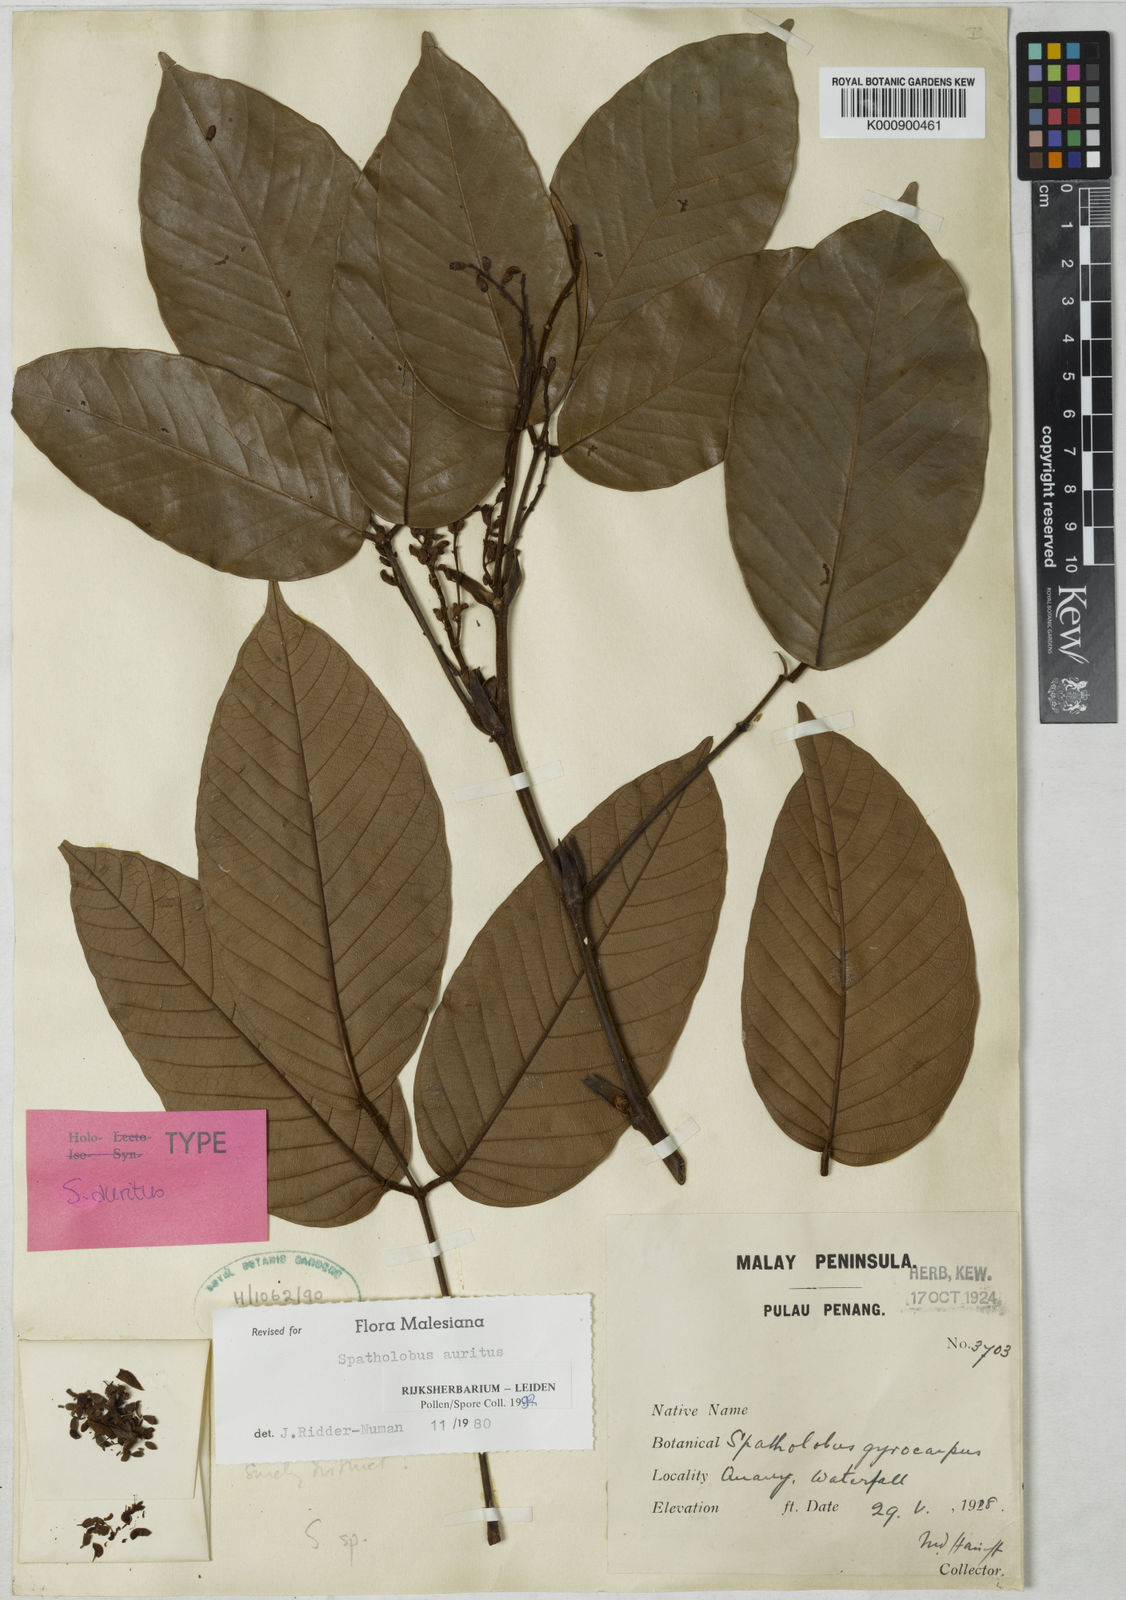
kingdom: Plantae
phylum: Tracheophyta
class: Magnoliopsida
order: Fabales
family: Fabaceae
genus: Spatholobus
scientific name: Spatholobus
